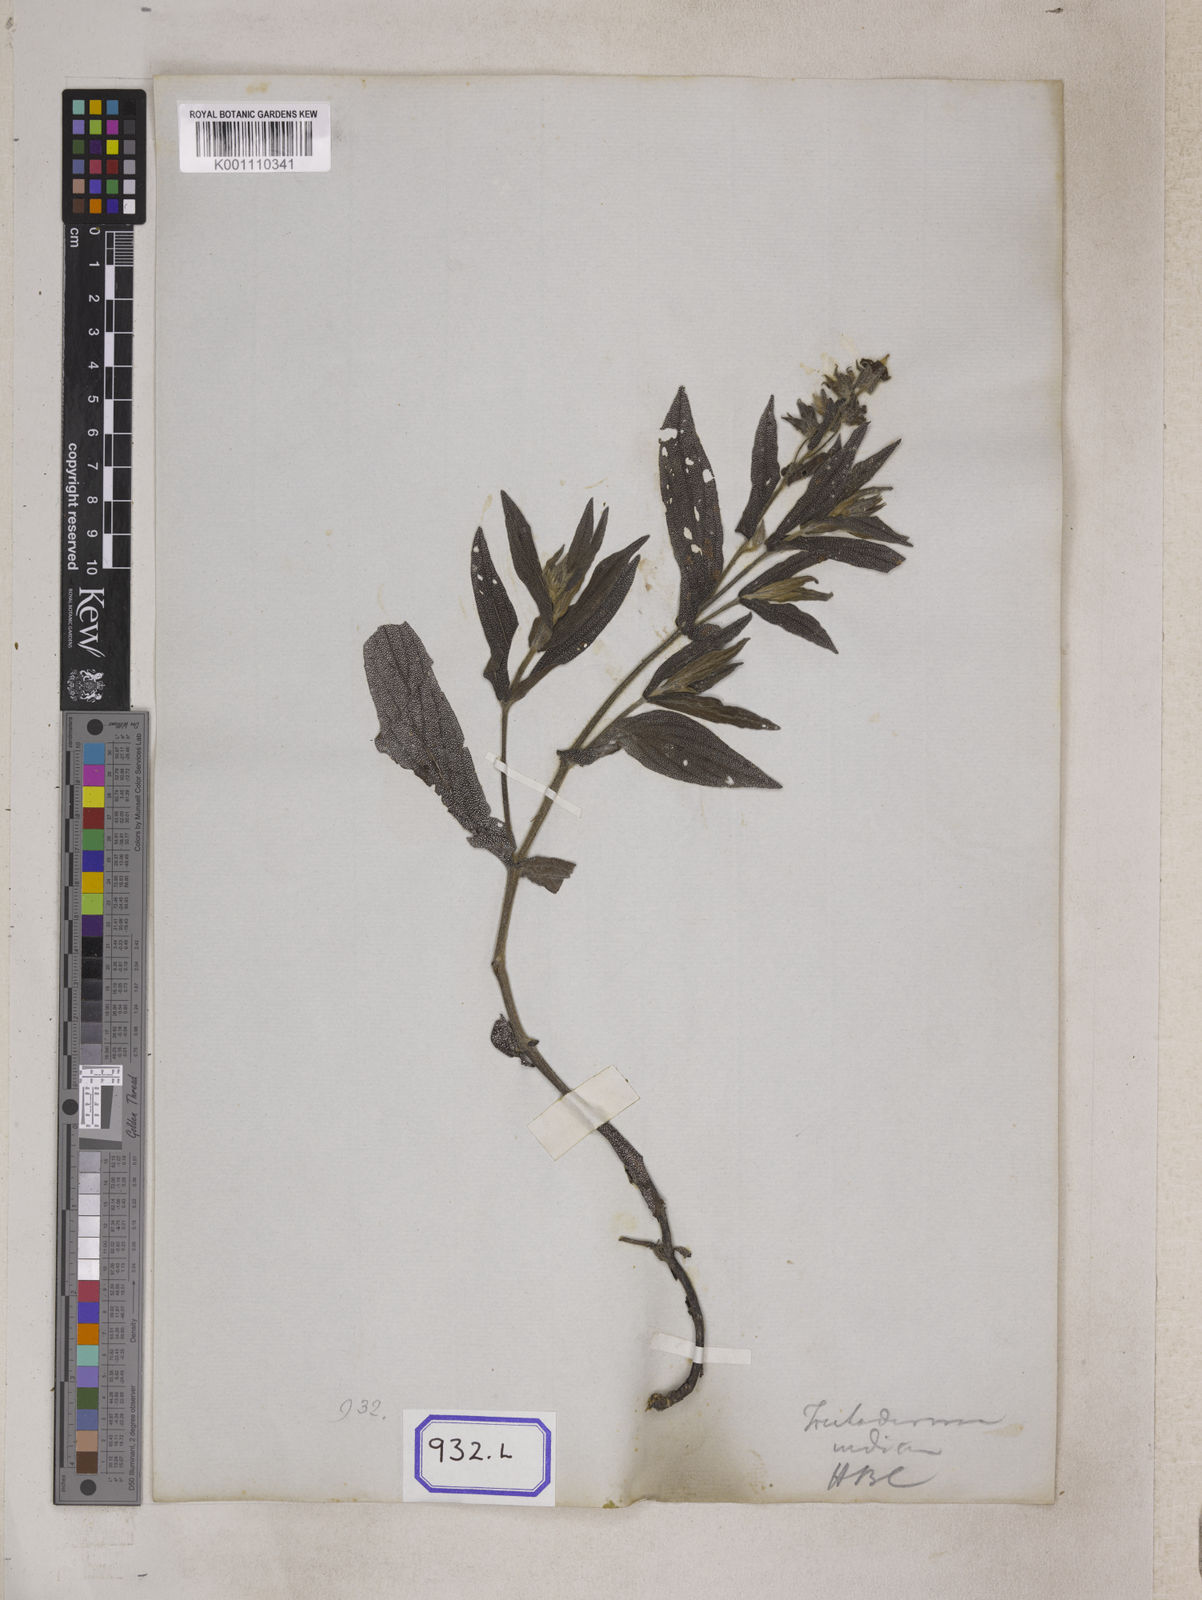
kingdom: Plantae
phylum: Tracheophyta
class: Magnoliopsida
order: Boraginales
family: Boraginaceae
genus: Trichodesma
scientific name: Trichodesma
